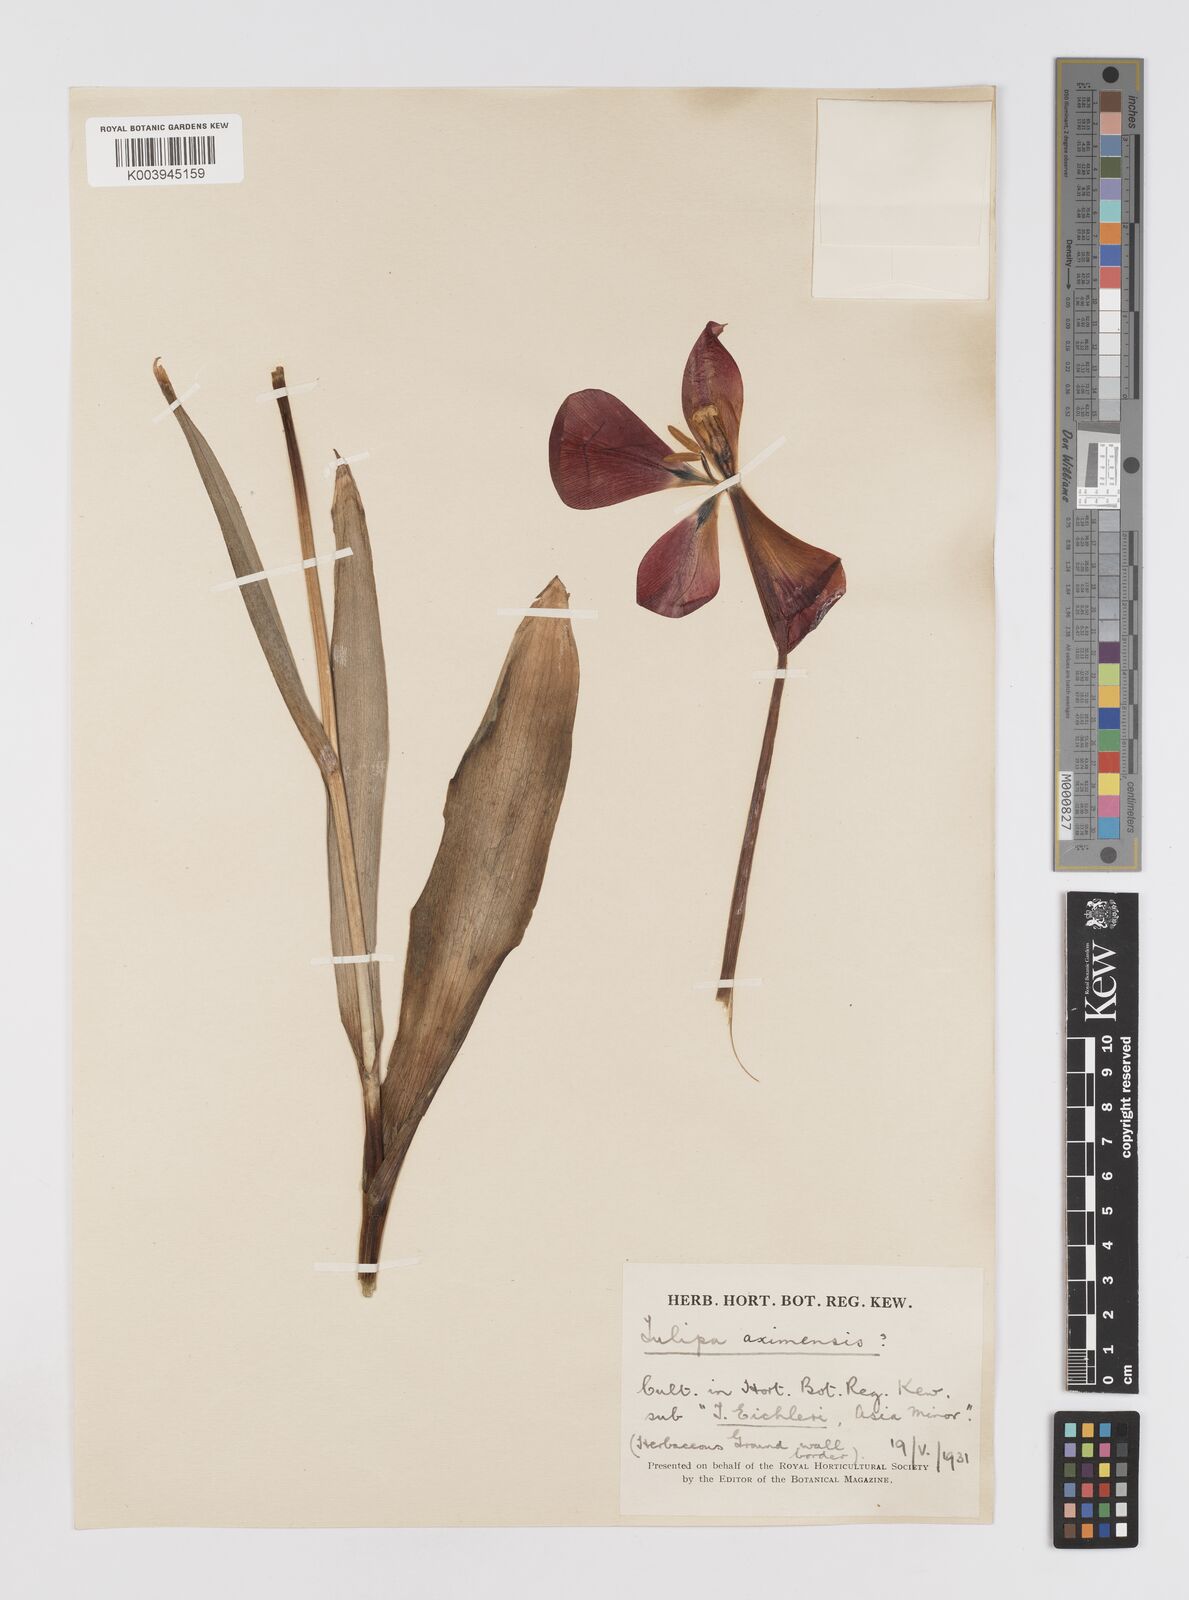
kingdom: Plantae
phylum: Tracheophyta
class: Liliopsida
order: Liliales
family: Liliaceae
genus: Tulipa
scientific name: Tulipa agenensis
